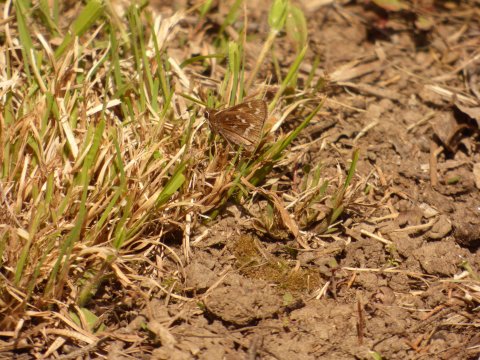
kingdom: Animalia
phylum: Arthropoda
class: Insecta
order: Lepidoptera
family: Hesperiidae
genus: Hesperia
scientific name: Hesperia metea
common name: Cobweb Skipper
